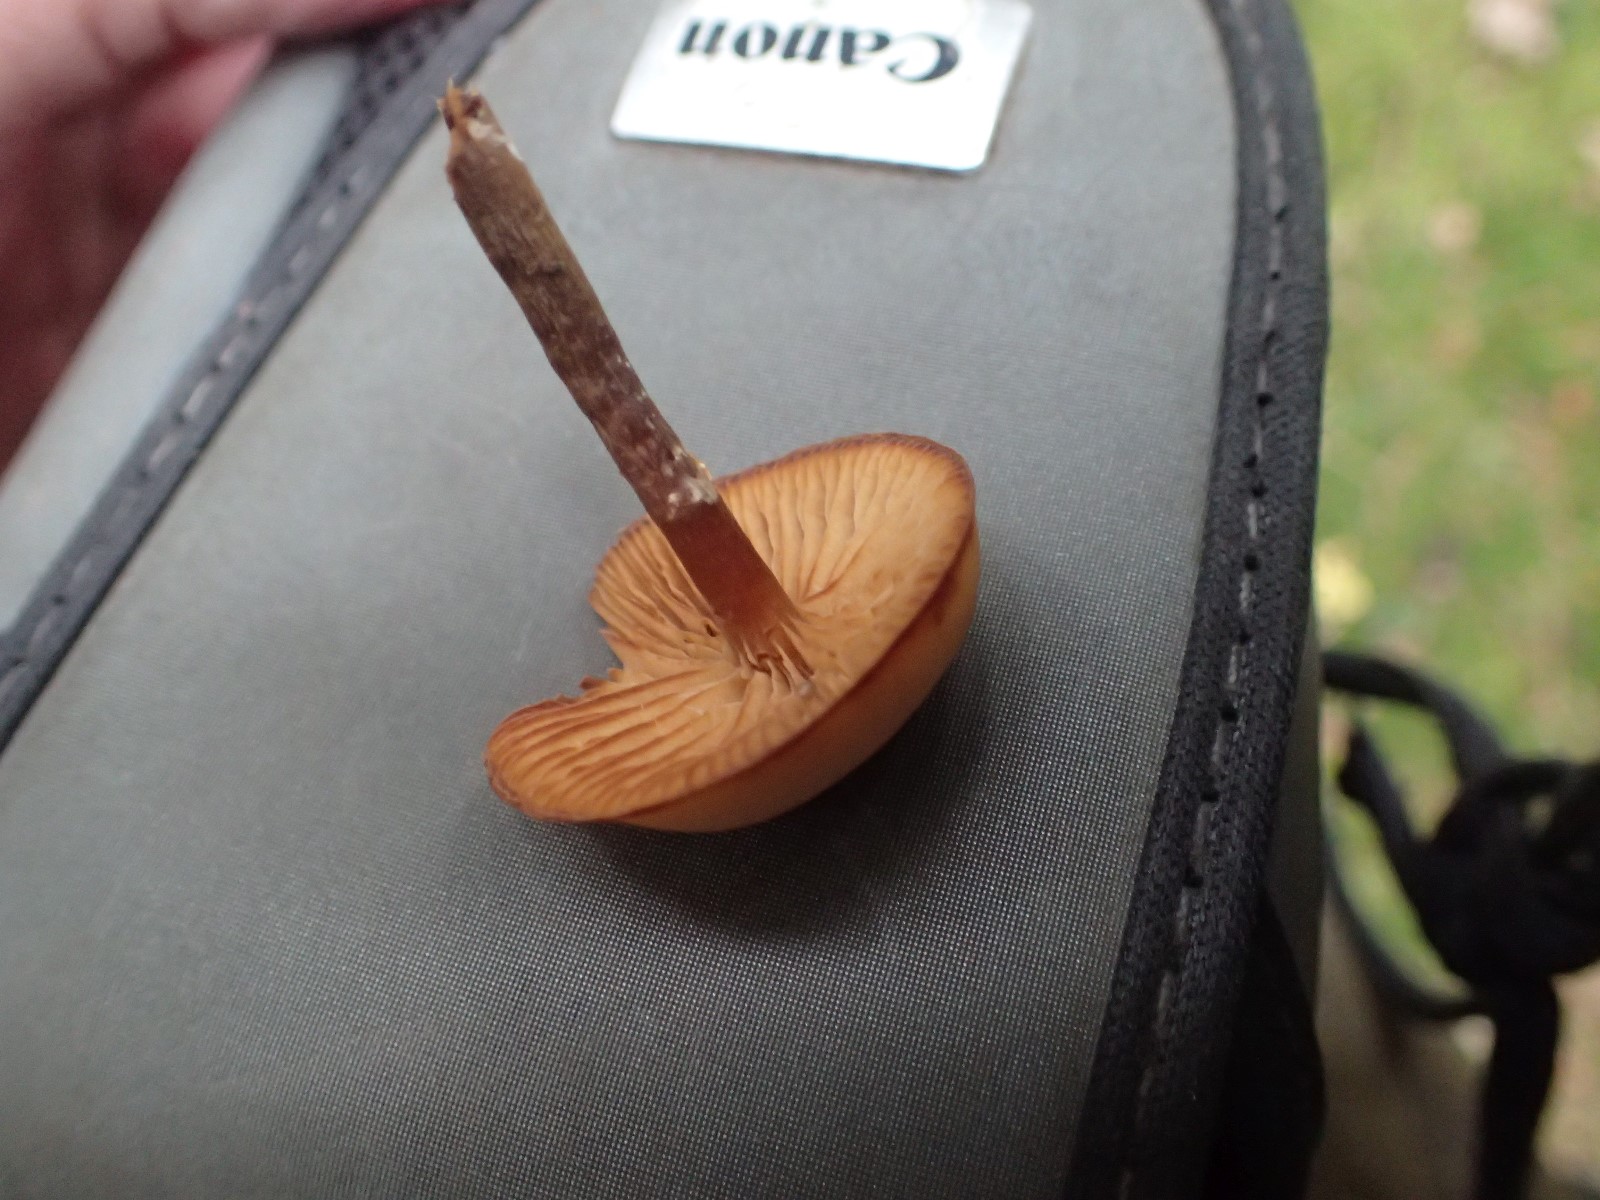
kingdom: Fungi
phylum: Basidiomycota
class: Agaricomycetes
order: Agaricales
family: Hymenogastraceae
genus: Galerina
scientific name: Galerina marginata
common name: randbæltet hjelmhat
